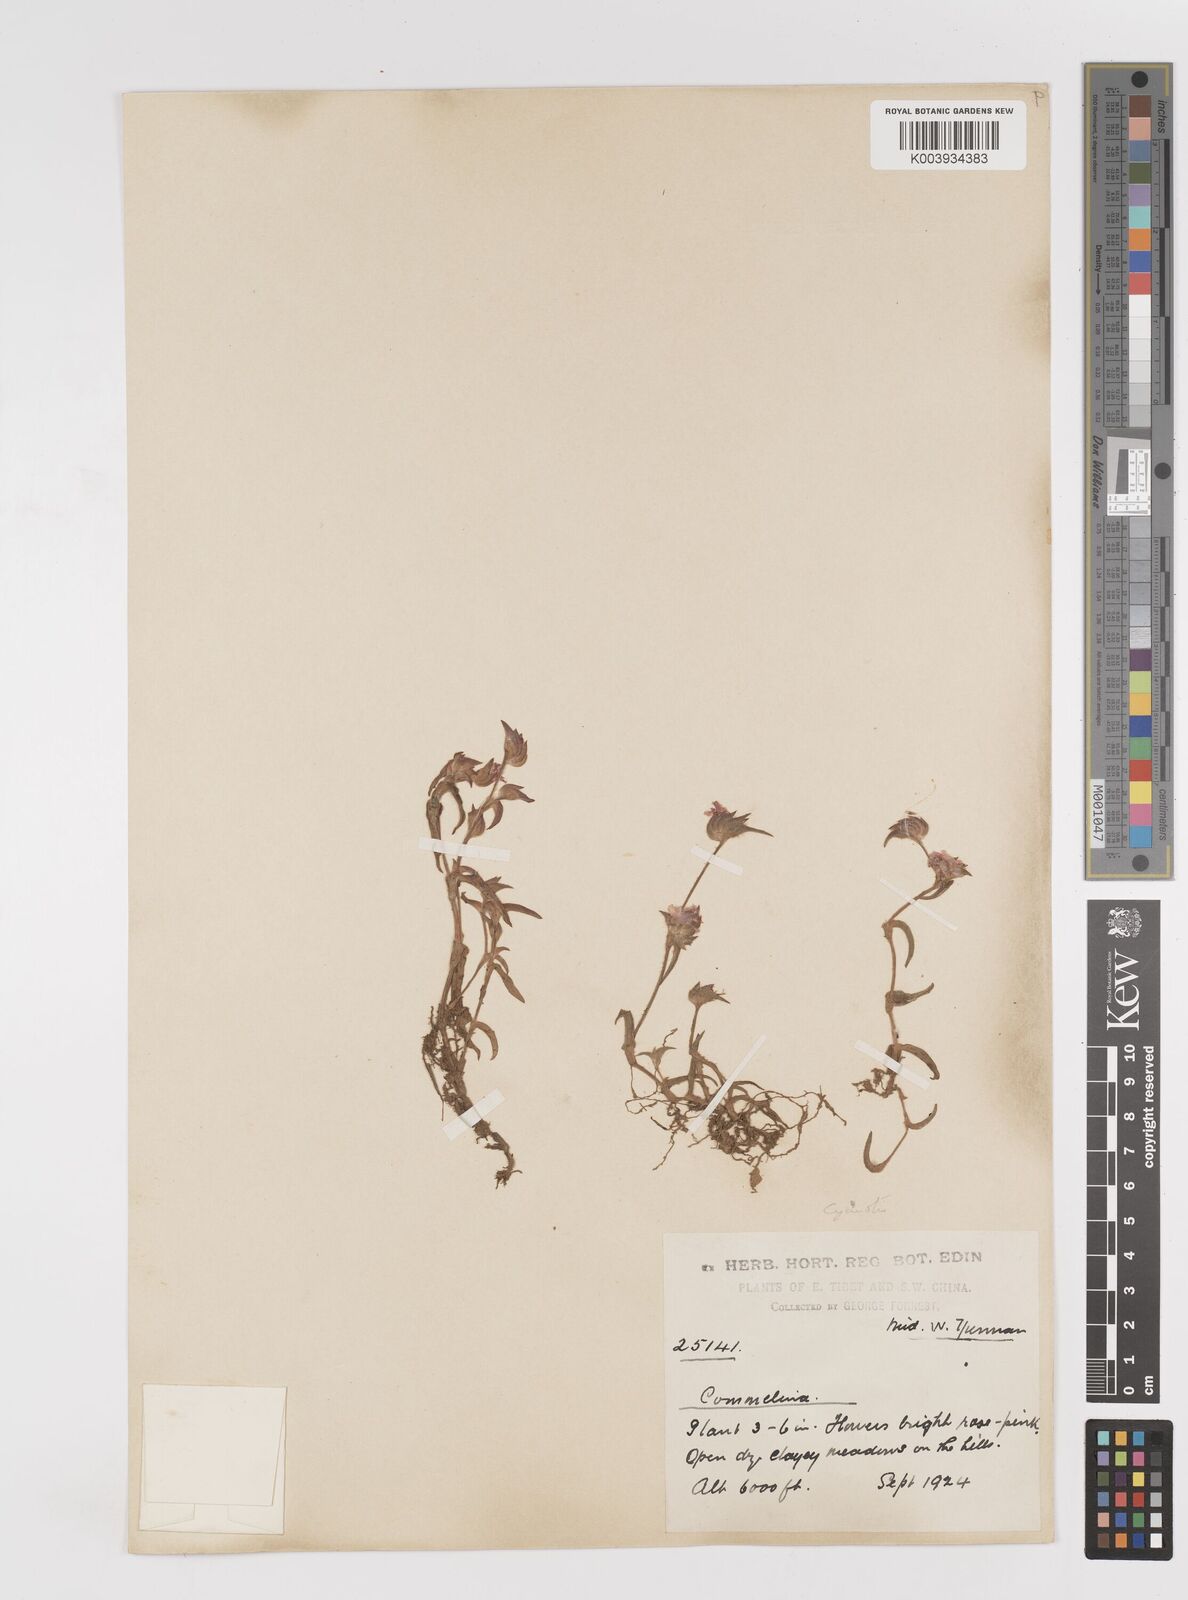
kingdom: Plantae
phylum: Tracheophyta
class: Liliopsida
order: Commelinales
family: Commelinaceae
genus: Cyanotis
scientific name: Cyanotis
